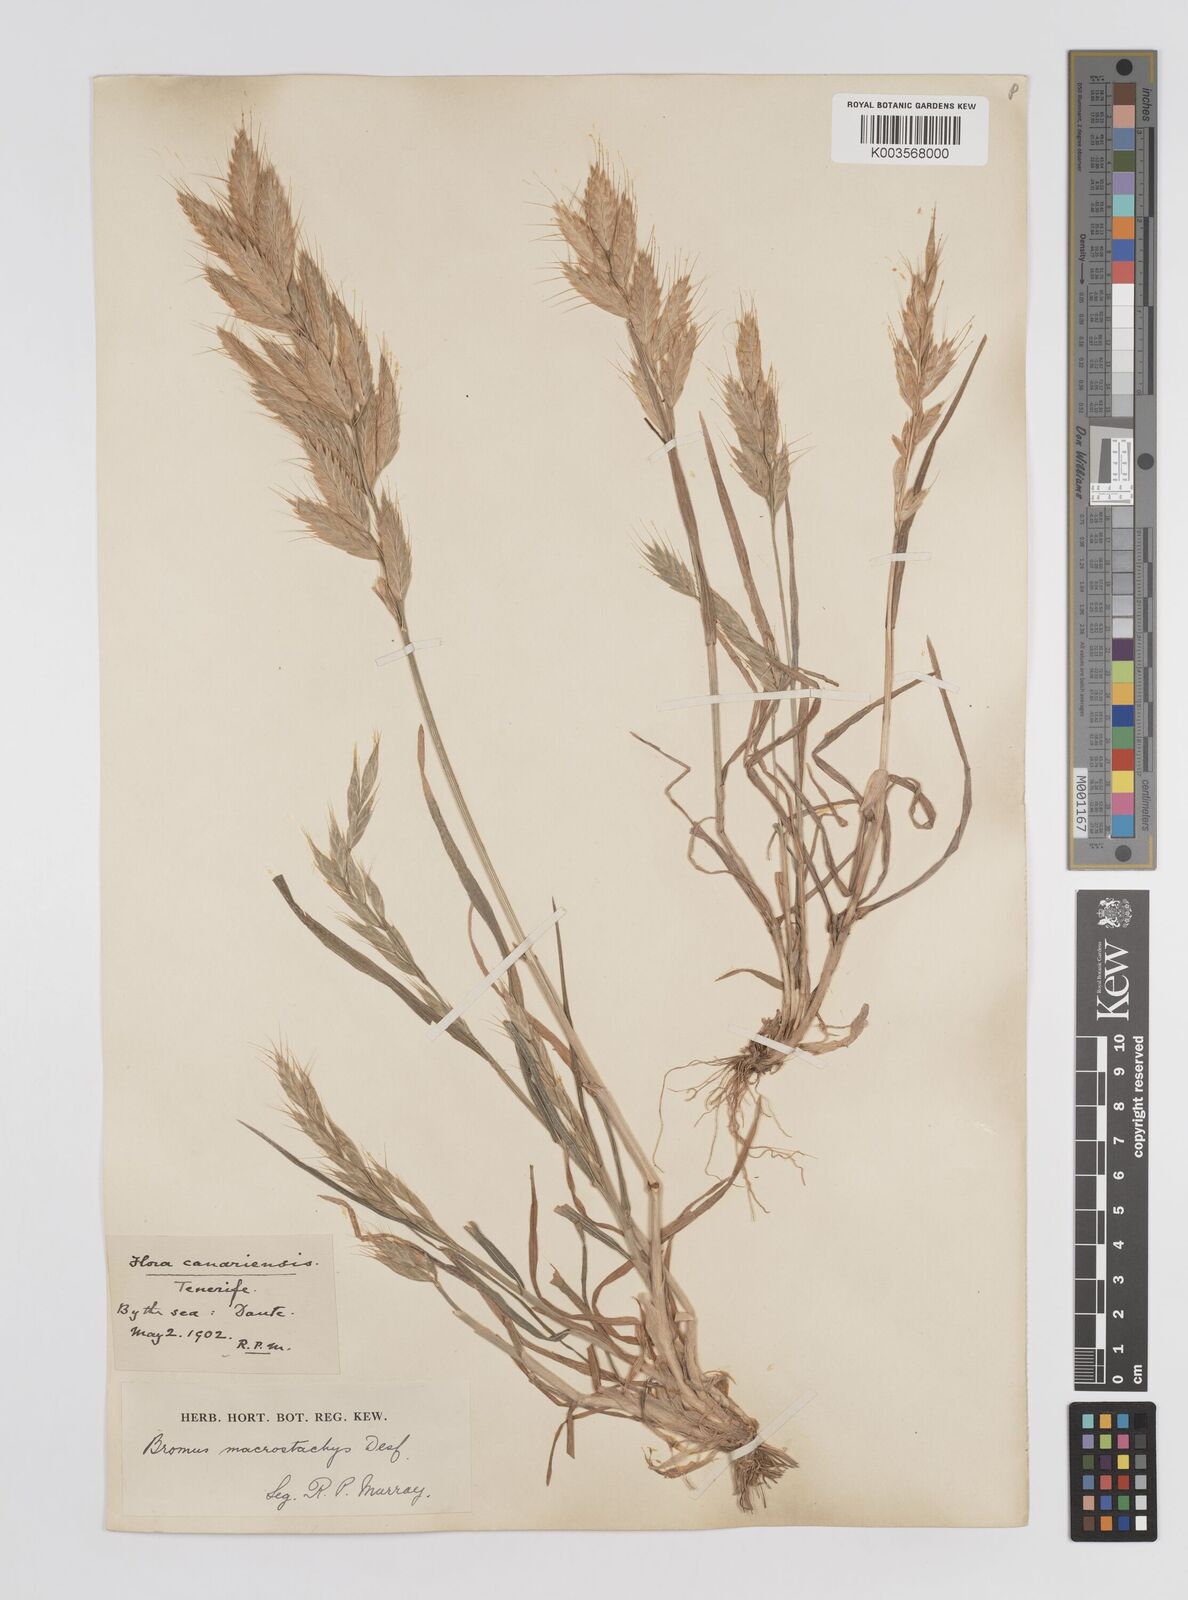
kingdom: Plantae
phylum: Tracheophyta
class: Liliopsida
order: Poales
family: Poaceae
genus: Bromus
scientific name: Bromus lanceolatus
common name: Mediterranean brome
